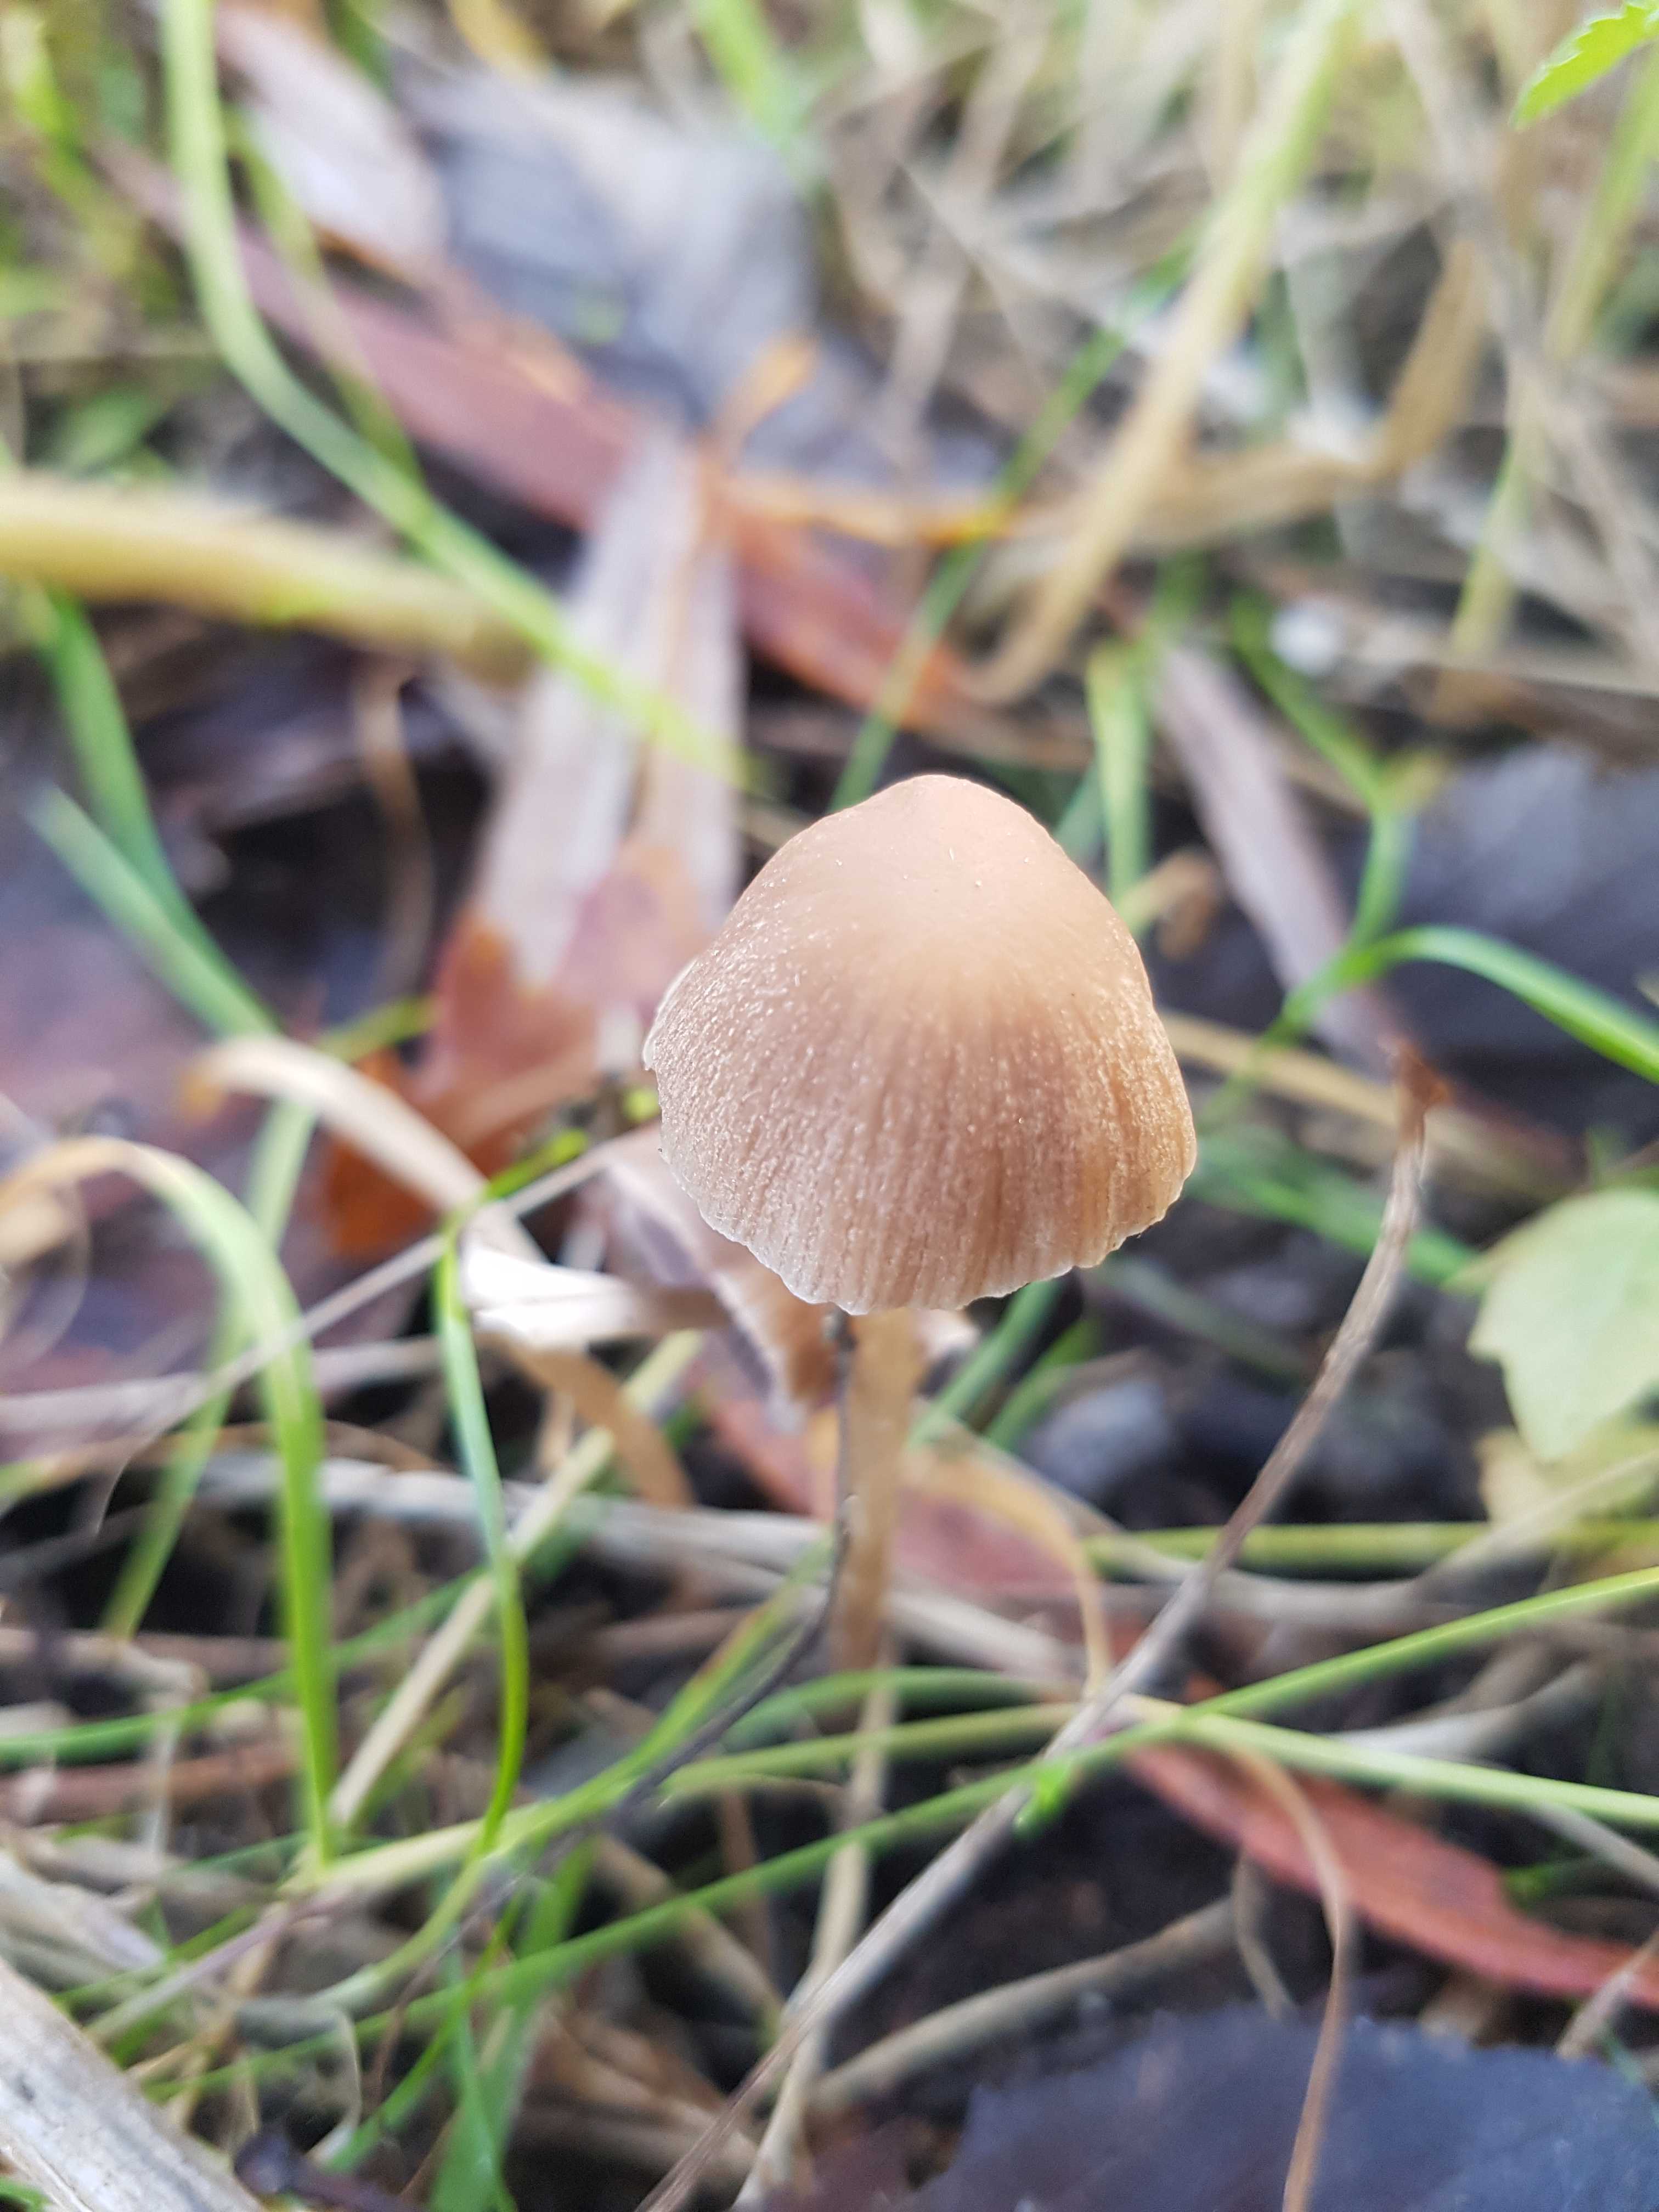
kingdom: Fungi
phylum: Basidiomycota
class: Agaricomycetes
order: Agaricales
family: Psathyrellaceae
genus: Psathyrella
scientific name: Psathyrella
